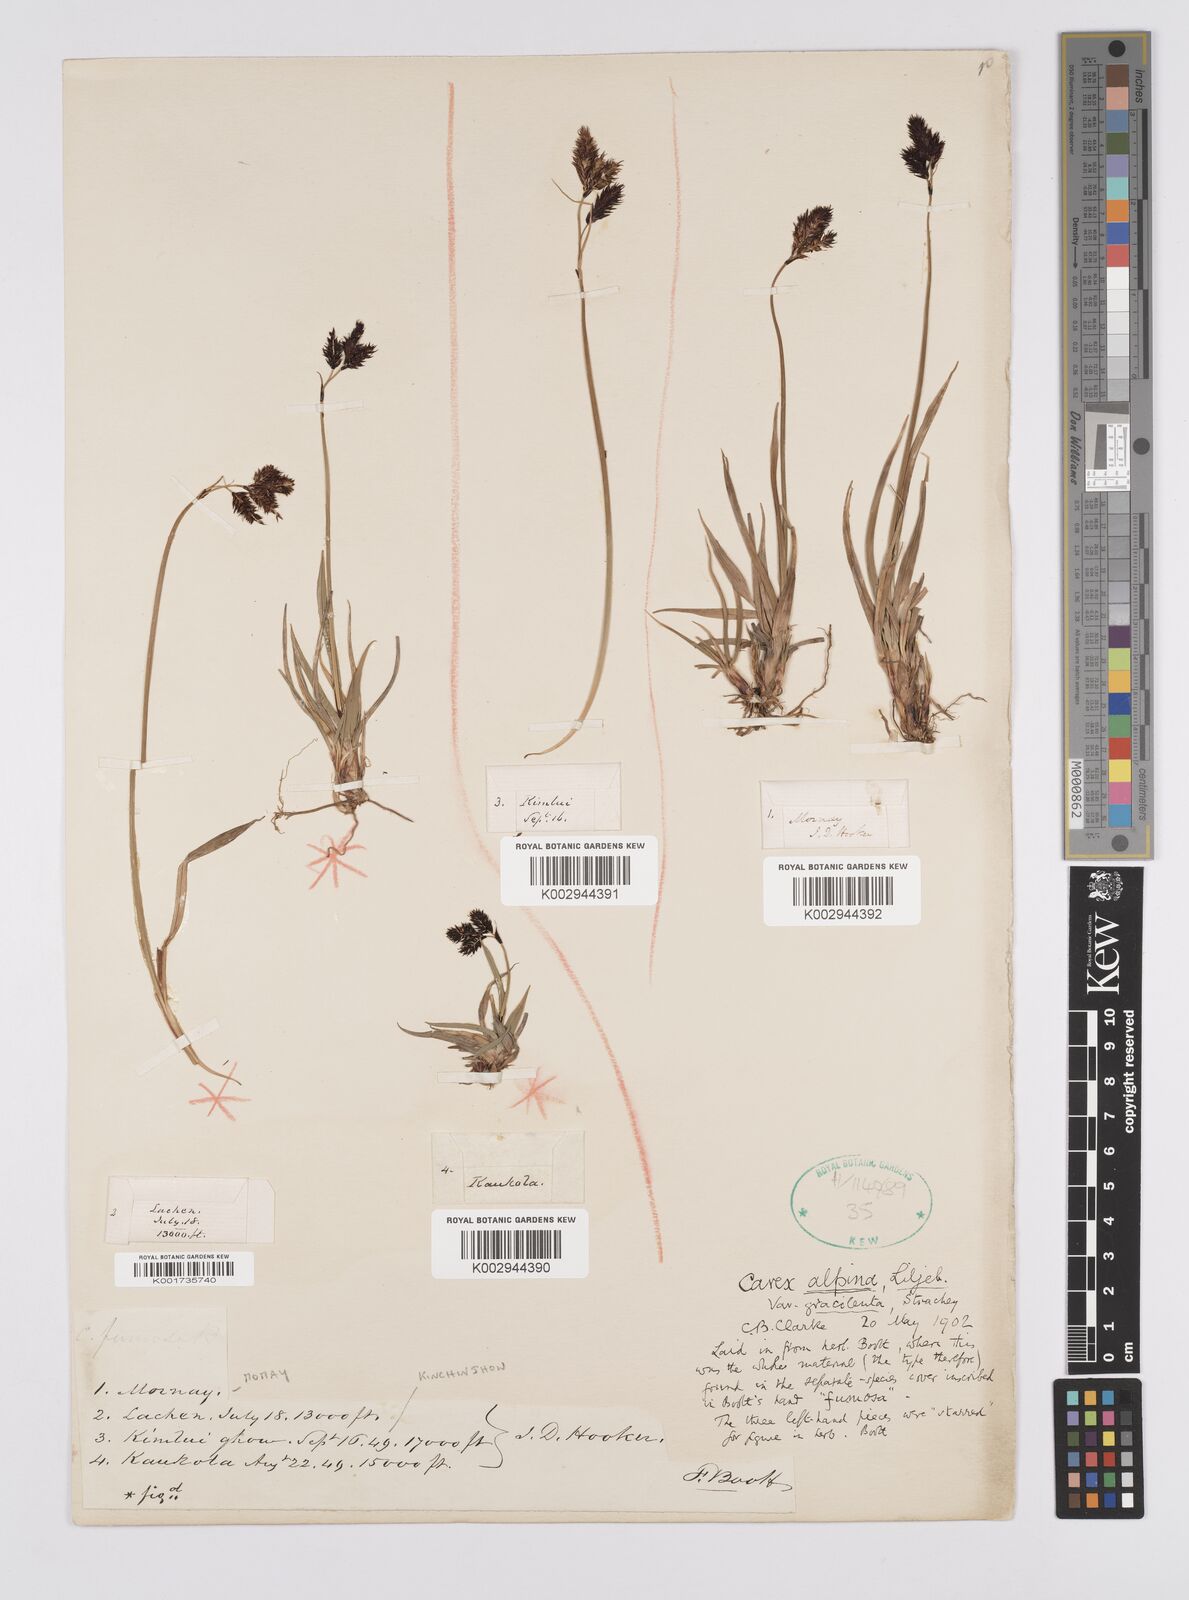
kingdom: Plantae
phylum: Tracheophyta
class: Liliopsida
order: Poales
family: Cyperaceae
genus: Carex
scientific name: Carex norvegica
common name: Close-headed alpine-sedge
